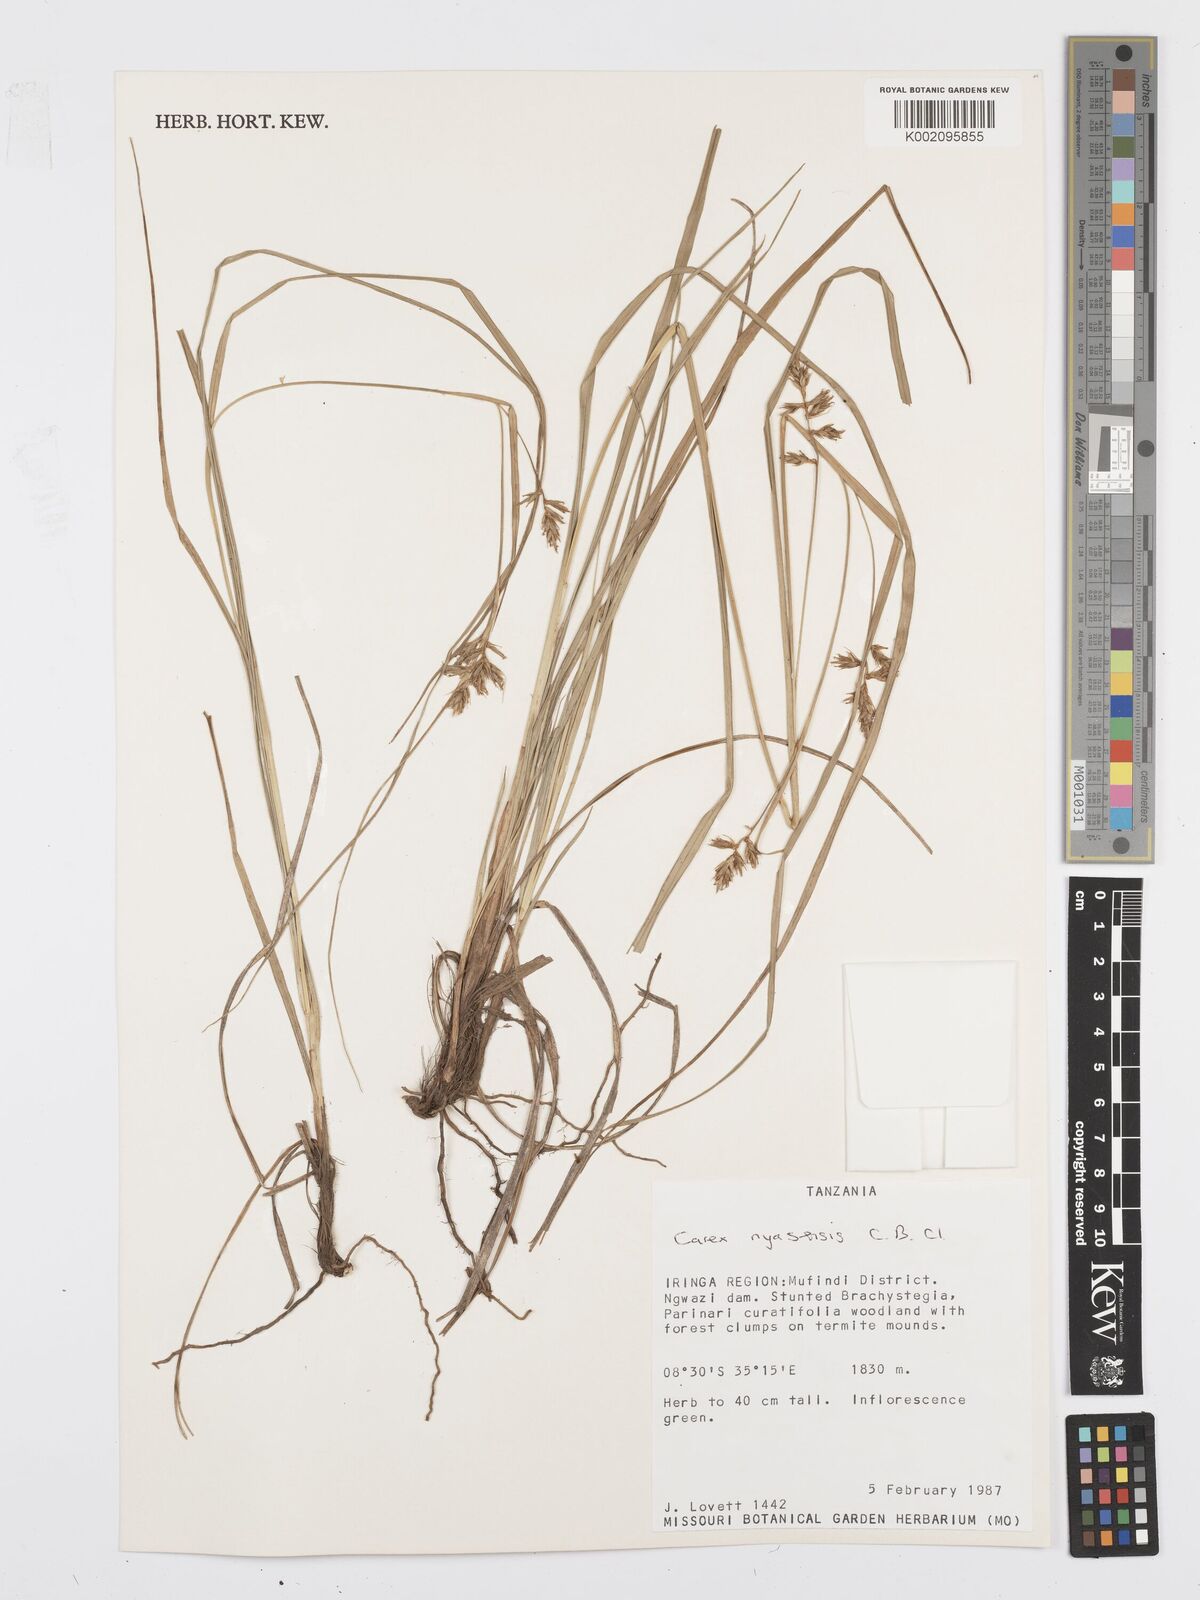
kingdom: Plantae
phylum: Tracheophyta
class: Liliopsida
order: Poales
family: Cyperaceae
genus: Carex
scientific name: Carex spicatopaniculata
